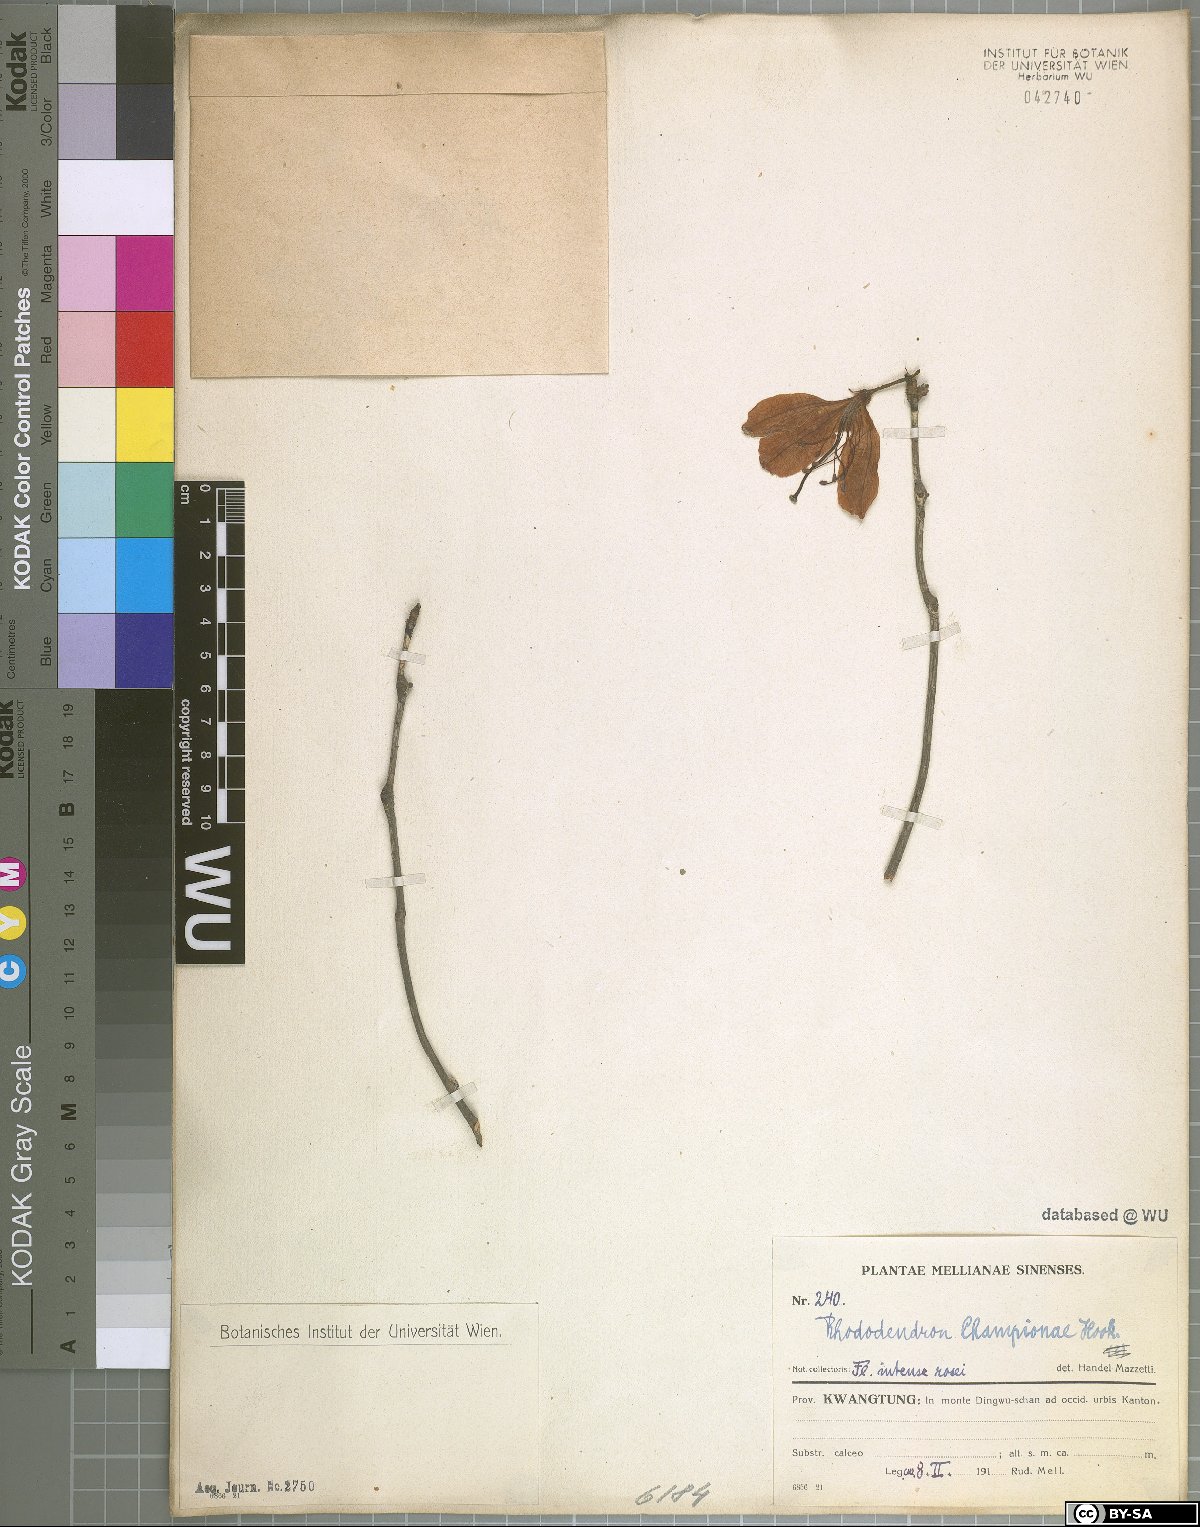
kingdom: Plantae
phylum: Tracheophyta
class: Magnoliopsida
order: Ericales
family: Ericaceae
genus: Rhododendron
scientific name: Rhododendron championiae
